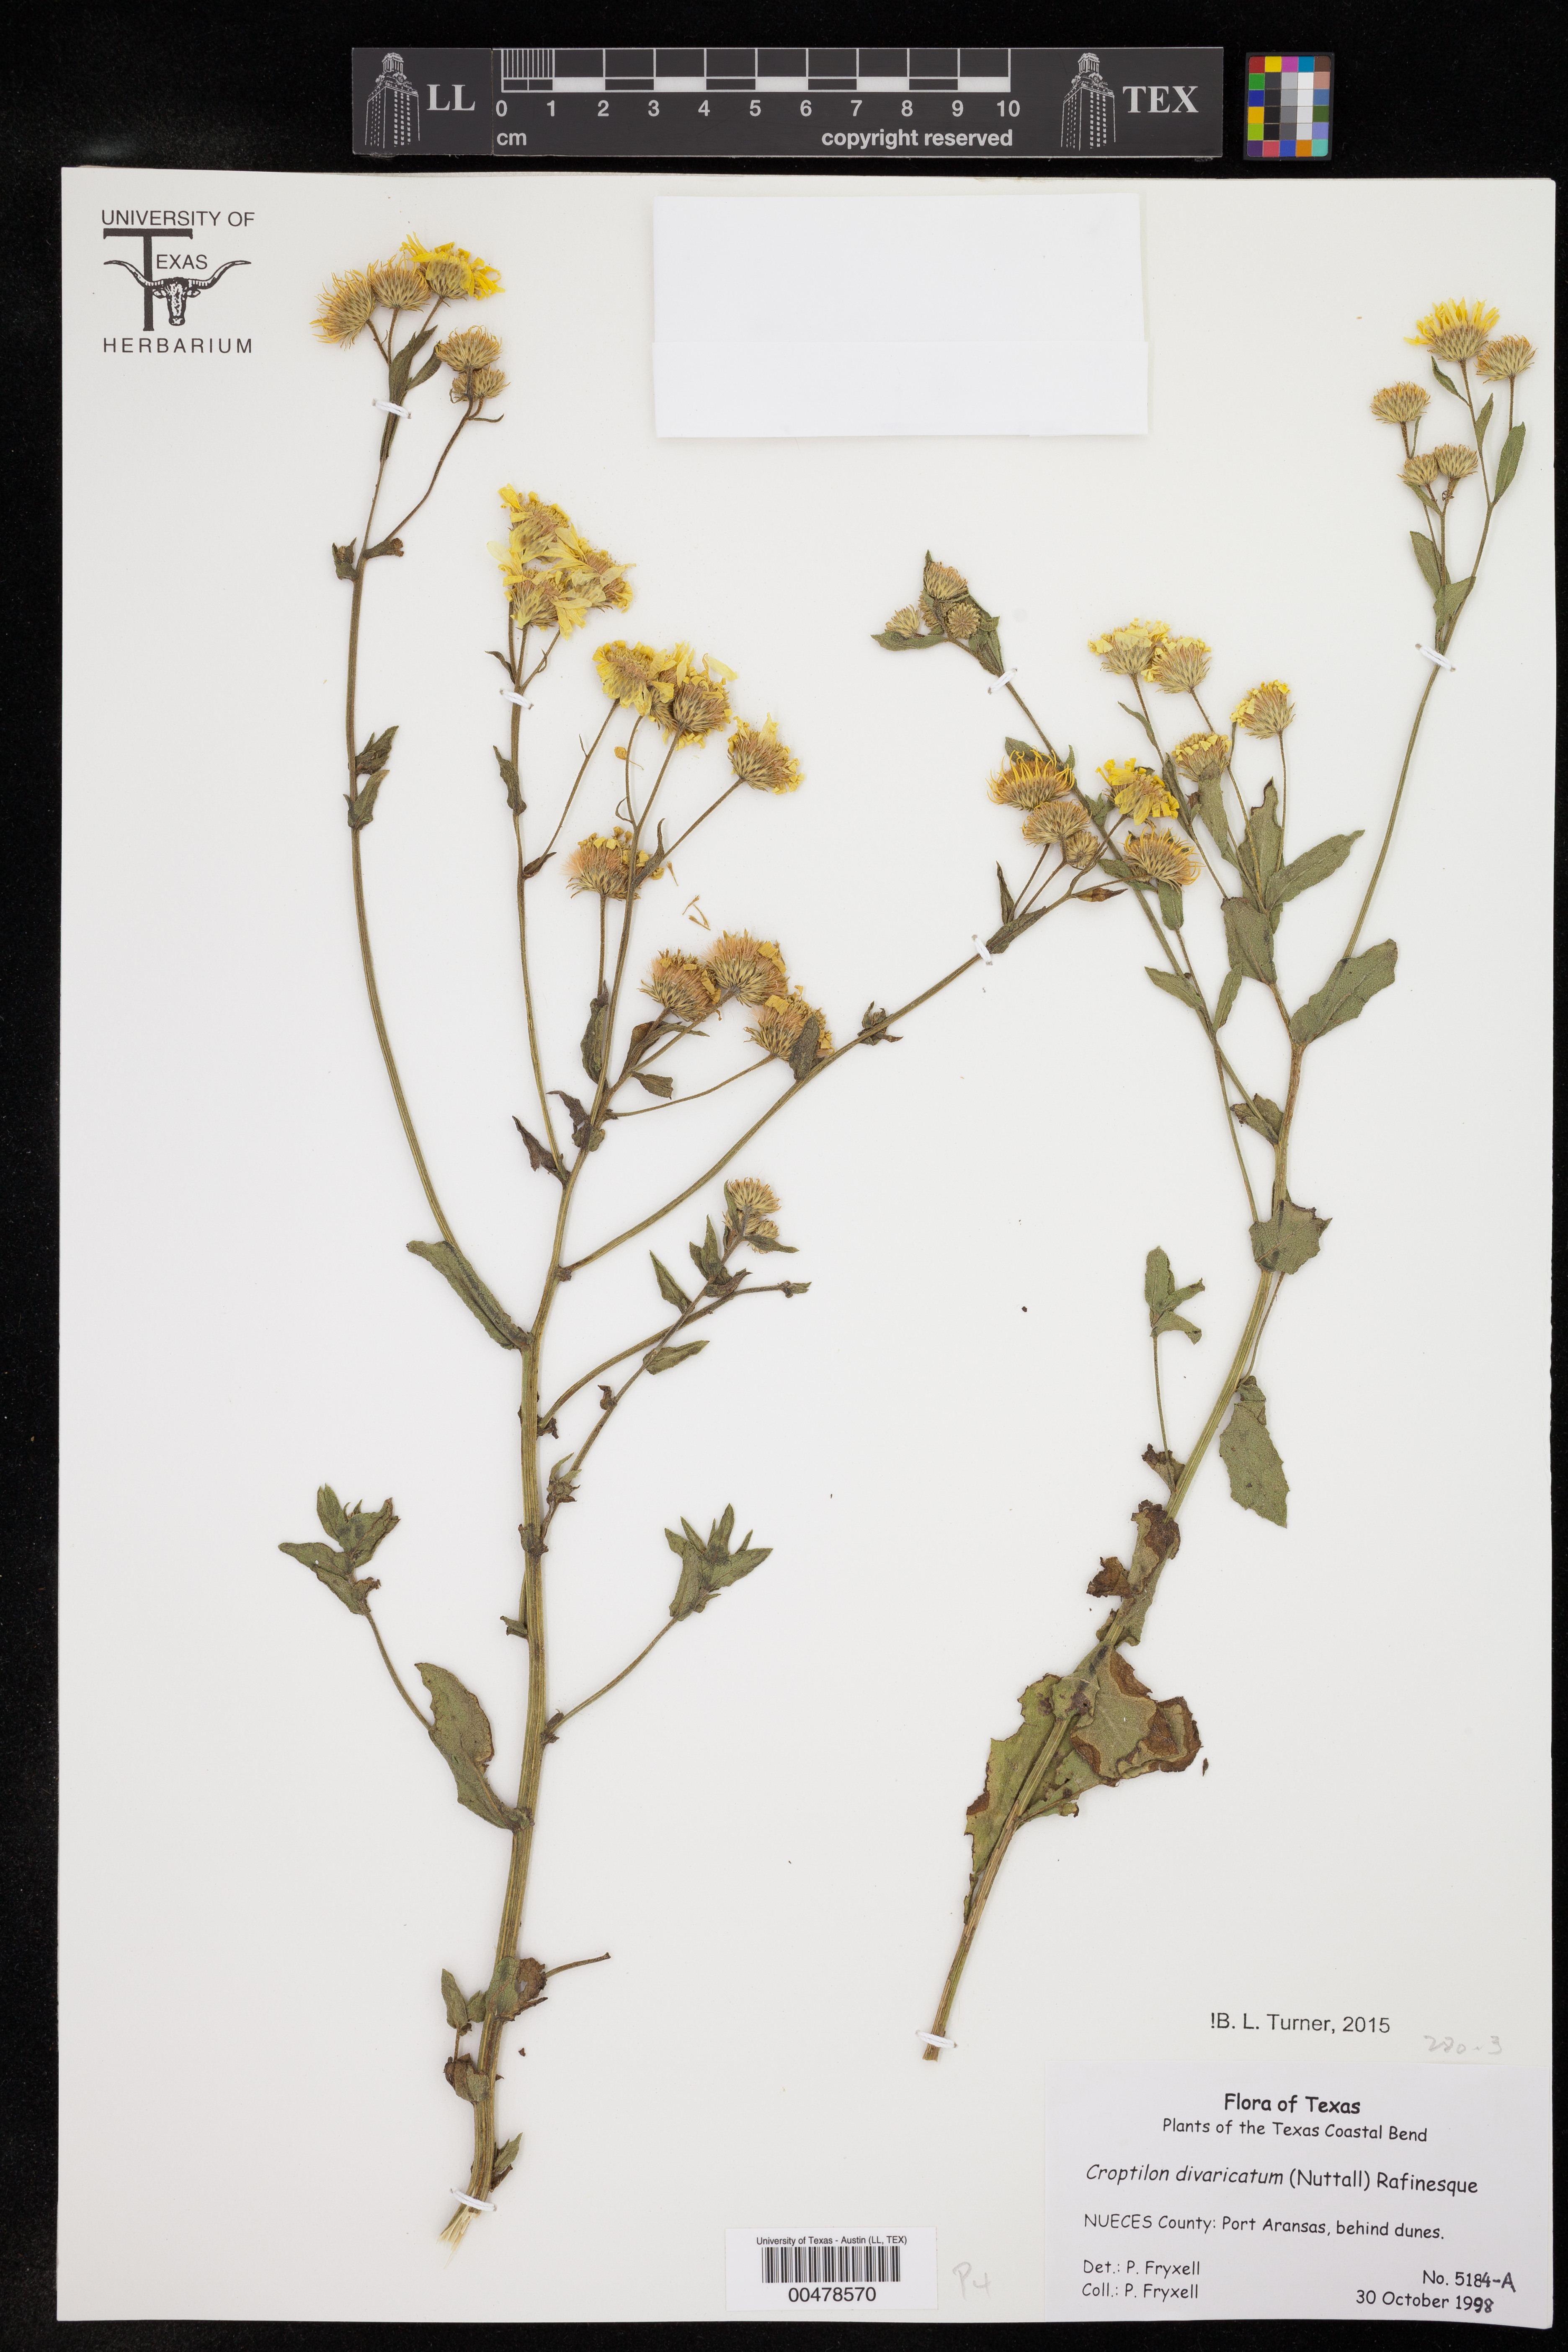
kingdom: Plantae
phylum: Tracheophyta
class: Magnoliopsida
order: Asterales
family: Asteraceae
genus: Croptilon
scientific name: Croptilon divaricatum
